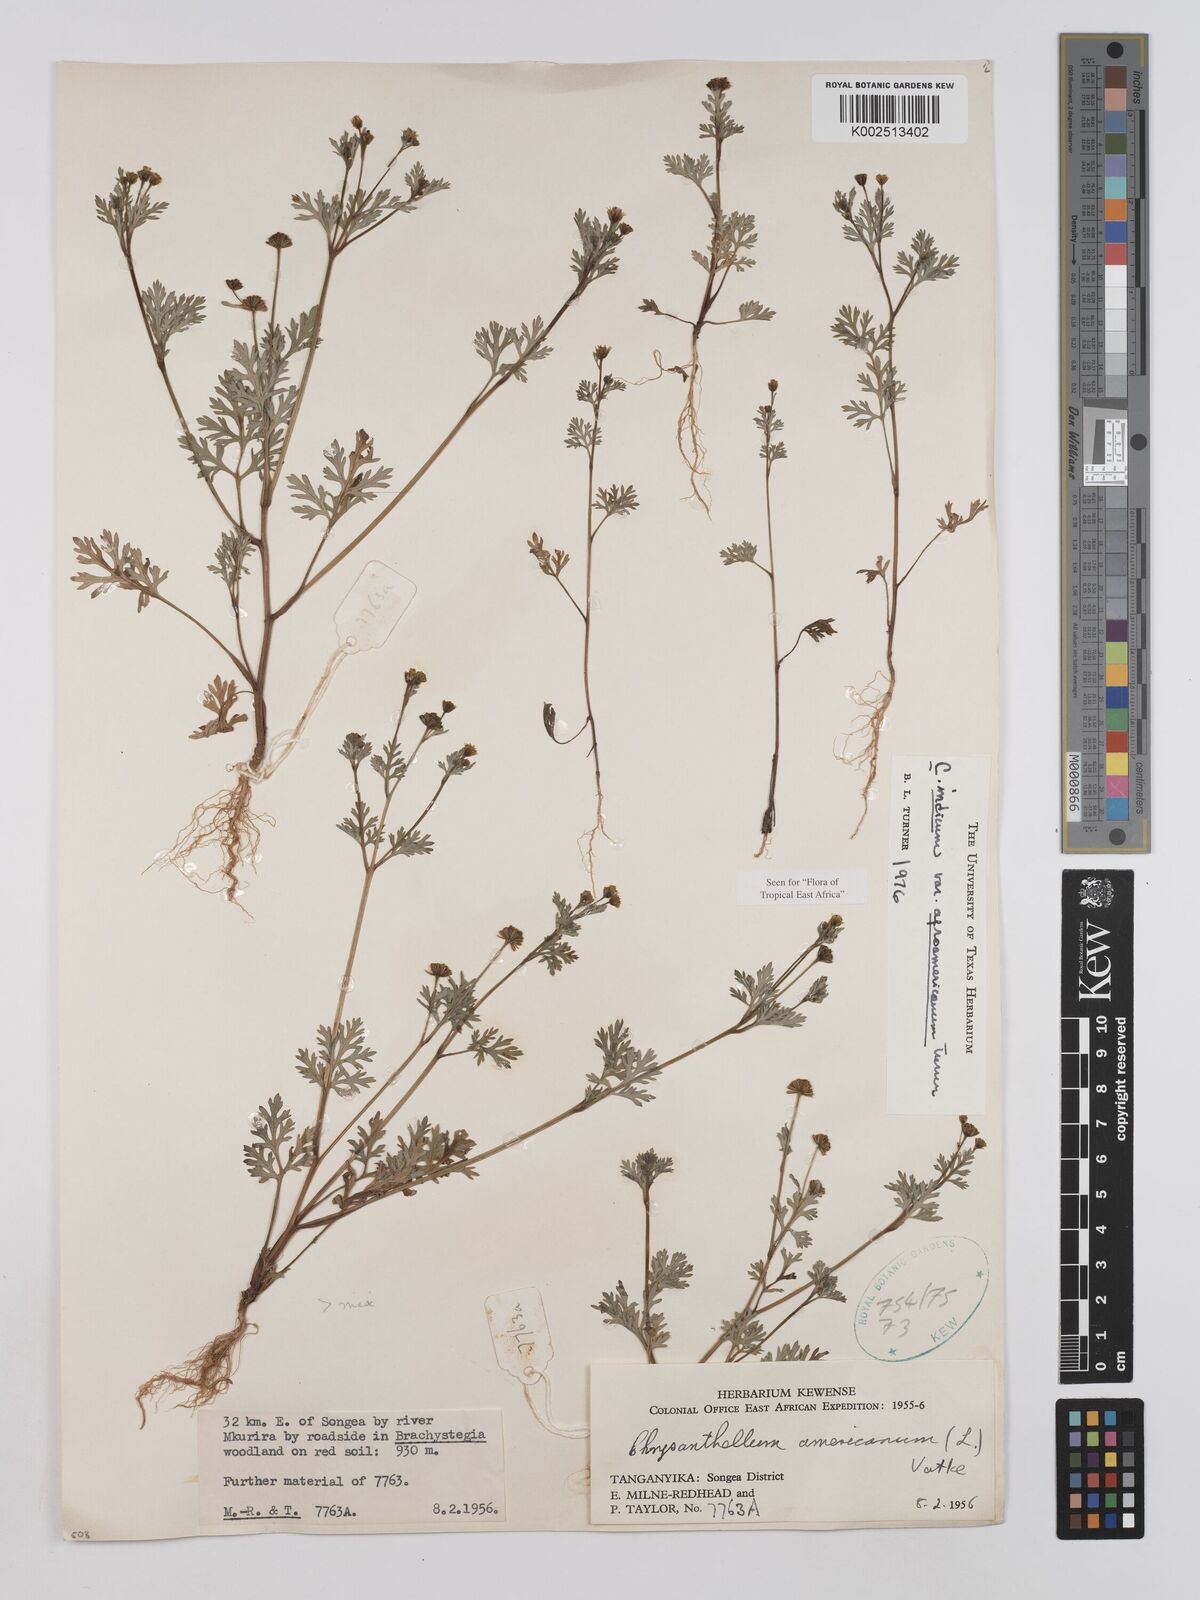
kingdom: Plantae
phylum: Tracheophyta
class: Magnoliopsida
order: Asterales
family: Asteraceae
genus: Chrysanthellum
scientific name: Chrysanthellum indicum
